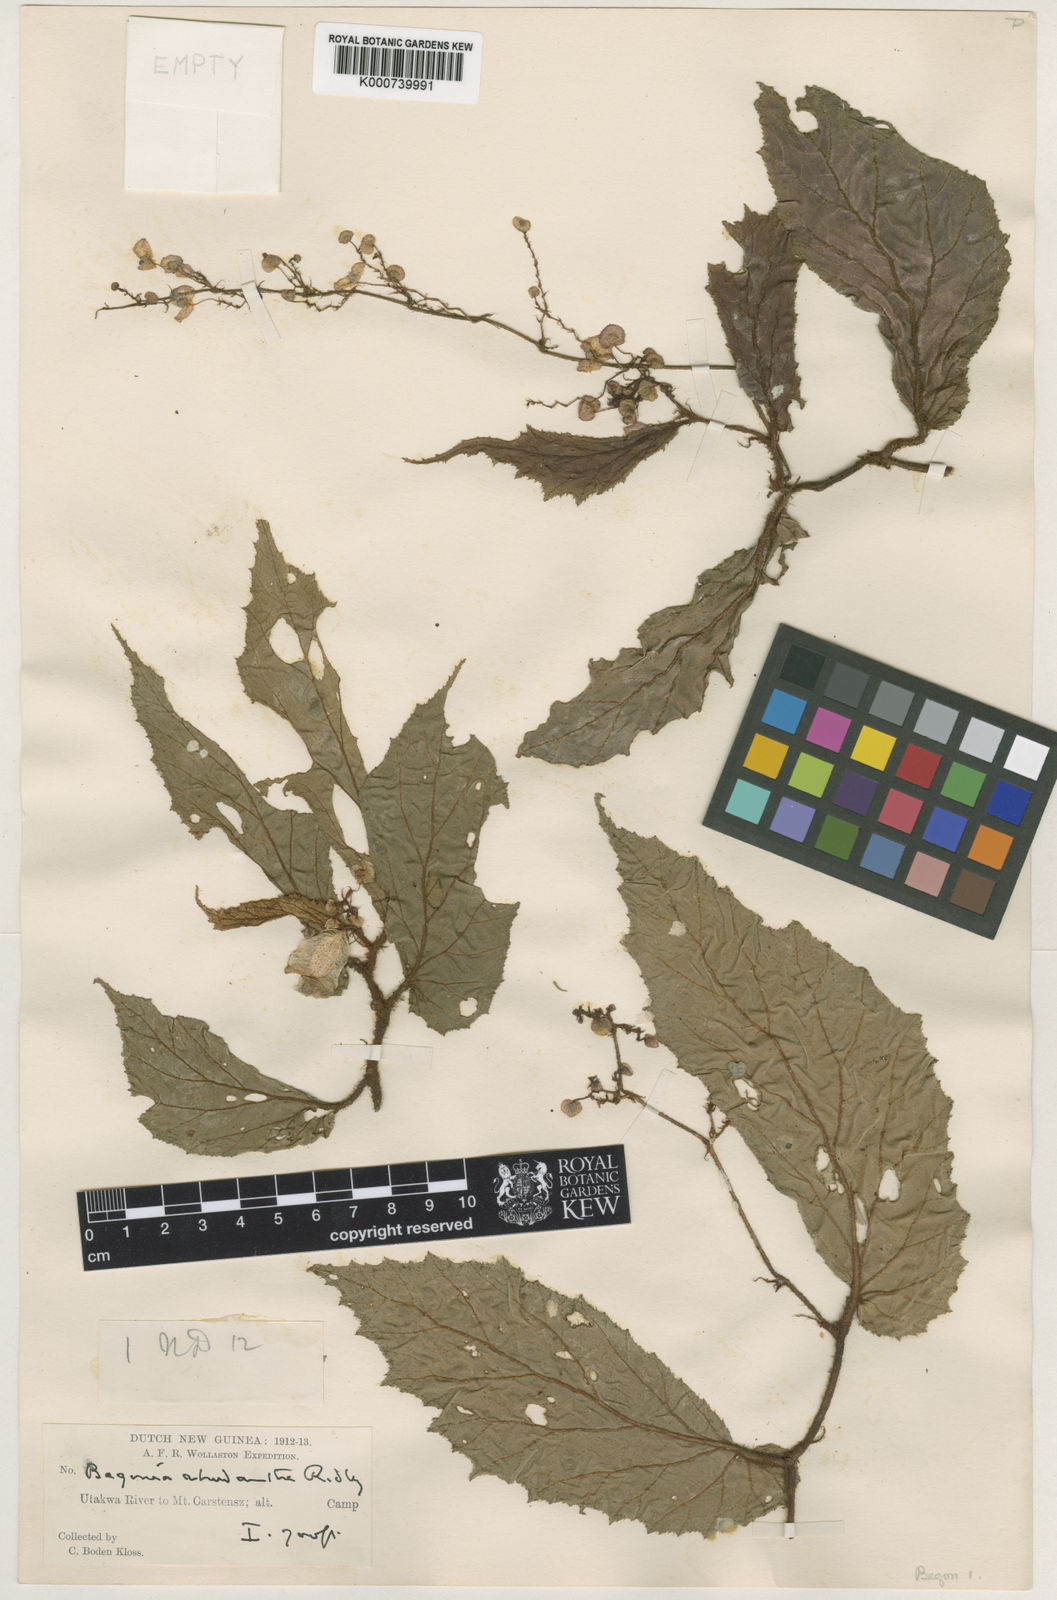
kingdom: Plantae
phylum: Tracheophyta
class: Magnoliopsida
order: Cucurbitales
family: Begoniaceae
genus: Begonia
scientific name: Begonia rhodantha
